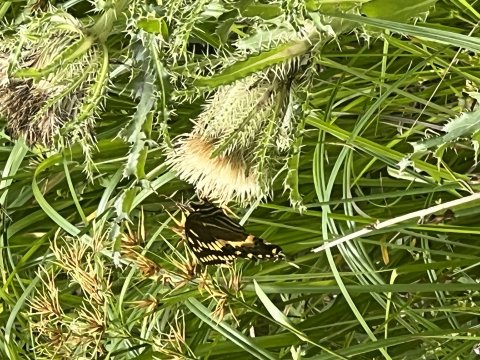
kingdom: Animalia
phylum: Arthropoda
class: Insecta
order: Lepidoptera
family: Papilionidae
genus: Pterourus
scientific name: Pterourus palamedes
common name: Palamedes Swallowtail
